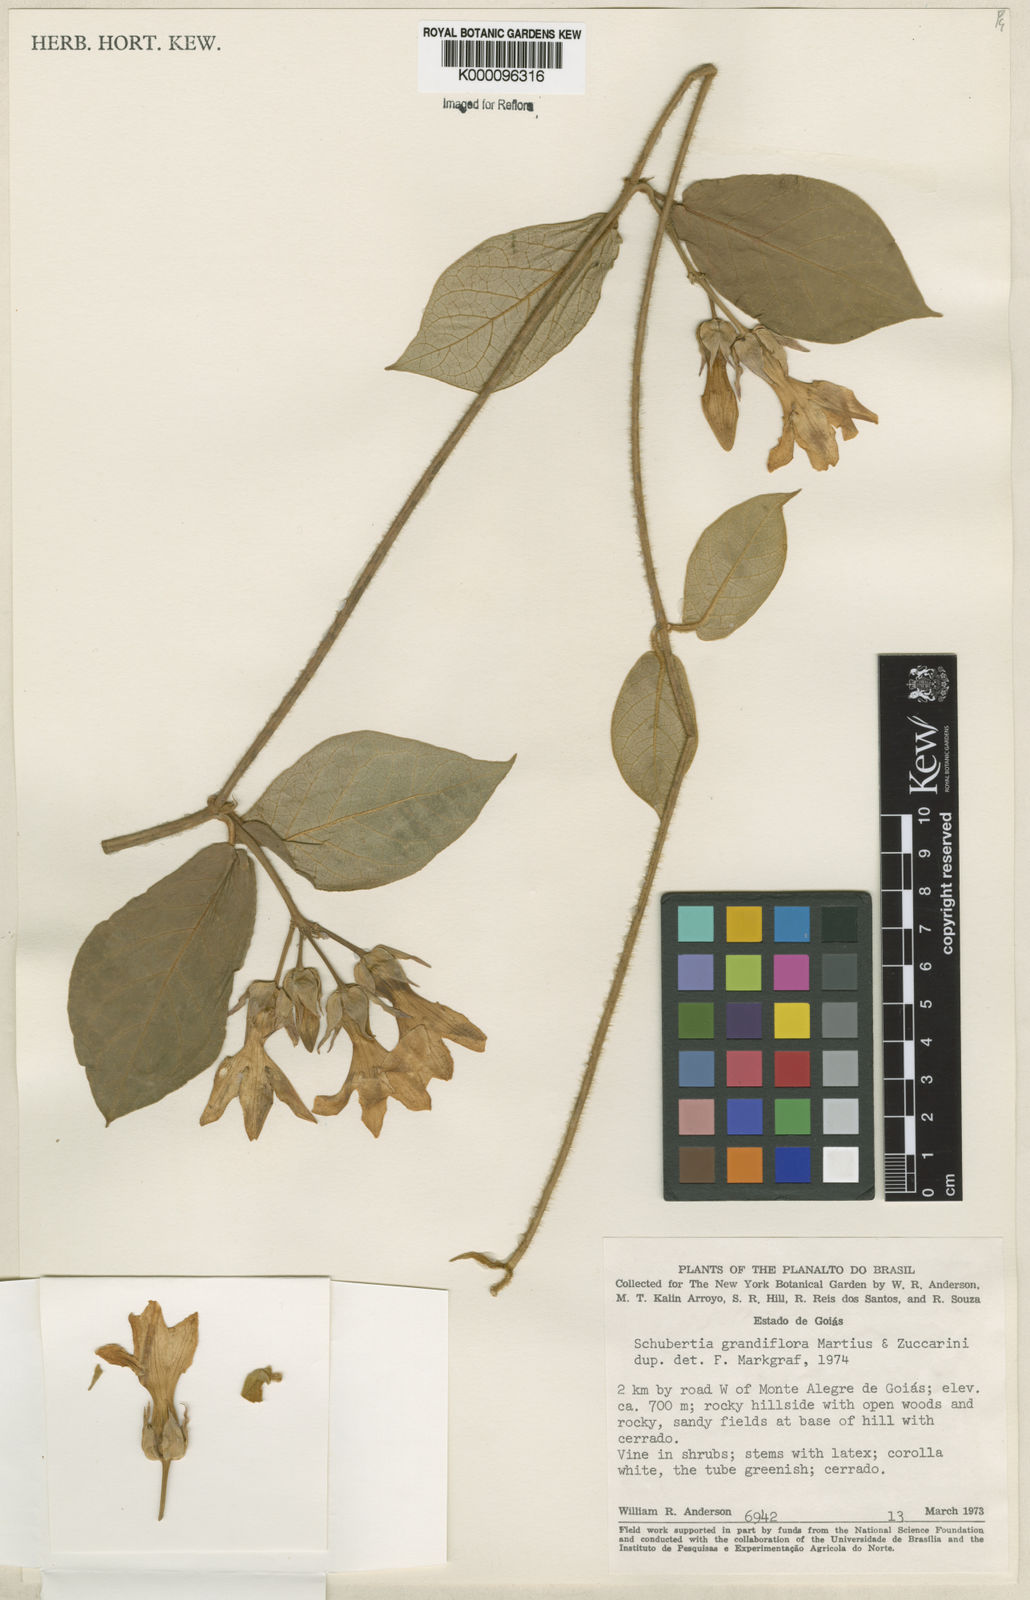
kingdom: Plantae
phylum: Tracheophyta
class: Magnoliopsida
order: Gentianales
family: Apocynaceae
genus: Macroscepis
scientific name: Macroscepis grandiflora
